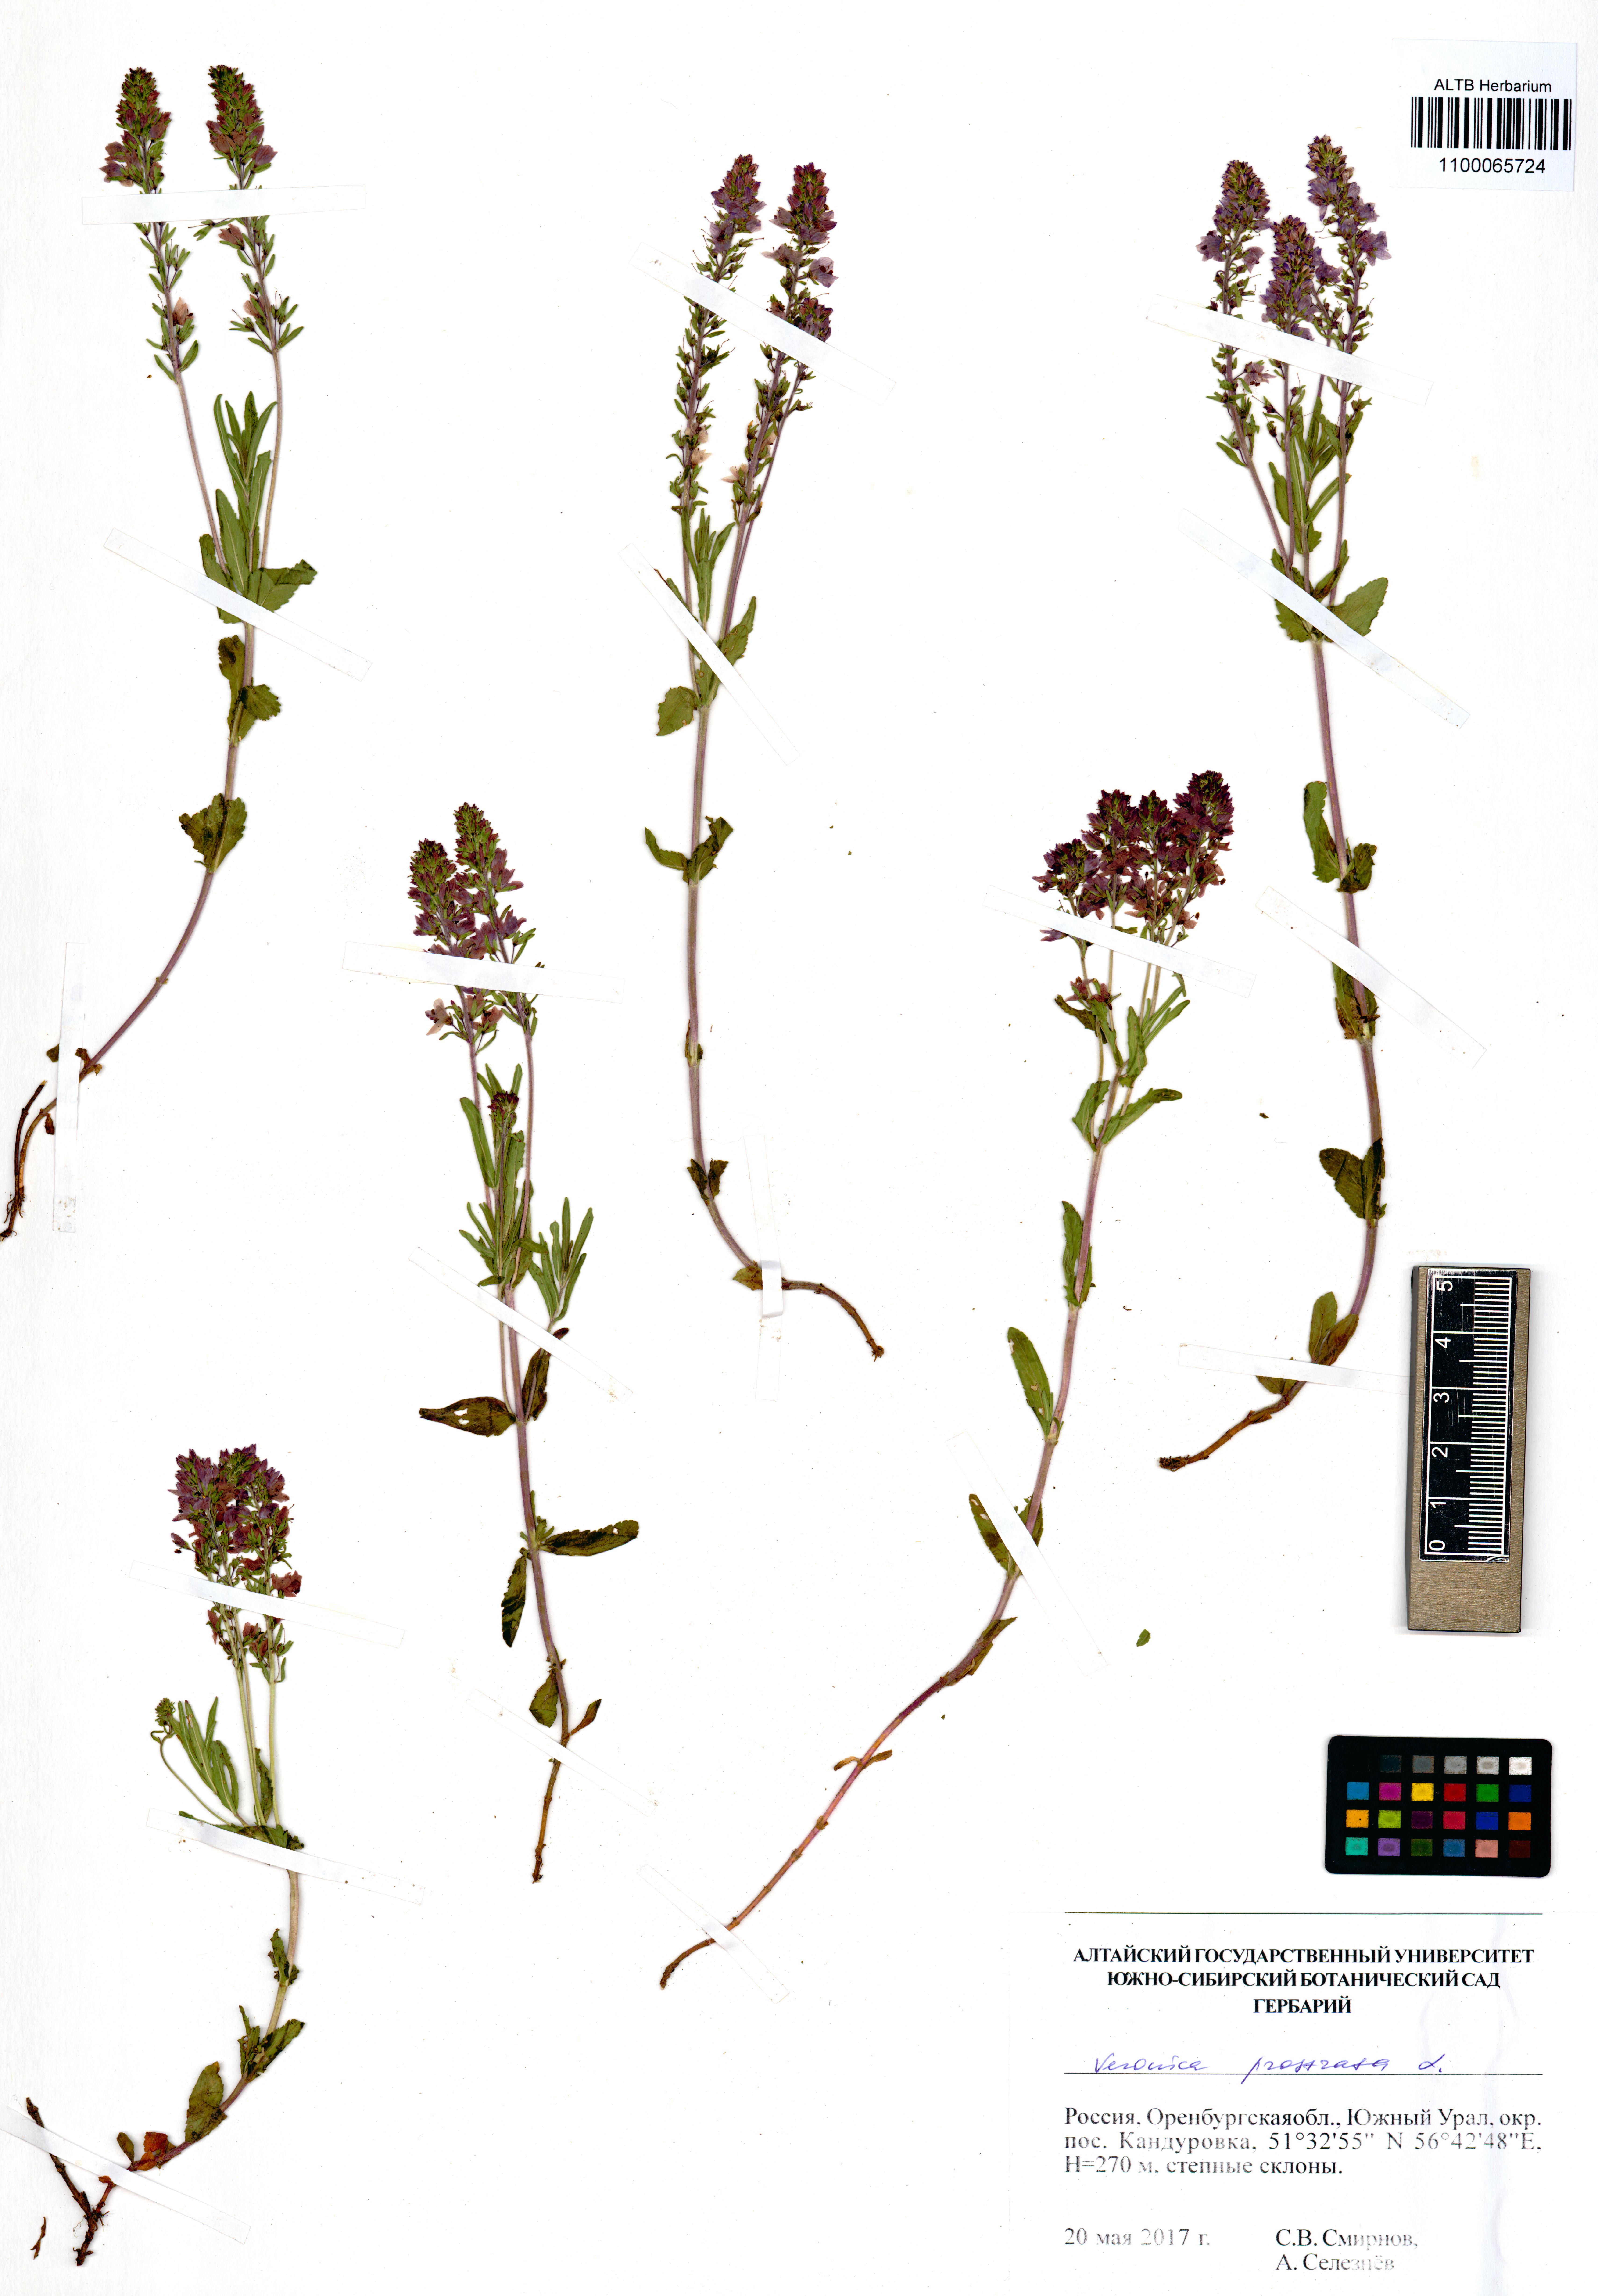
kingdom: Plantae
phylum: Tracheophyta
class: Magnoliopsida
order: Lamiales
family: Plantaginaceae
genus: Veronica
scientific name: Veronica prostrata
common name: Prostrate speedwell
